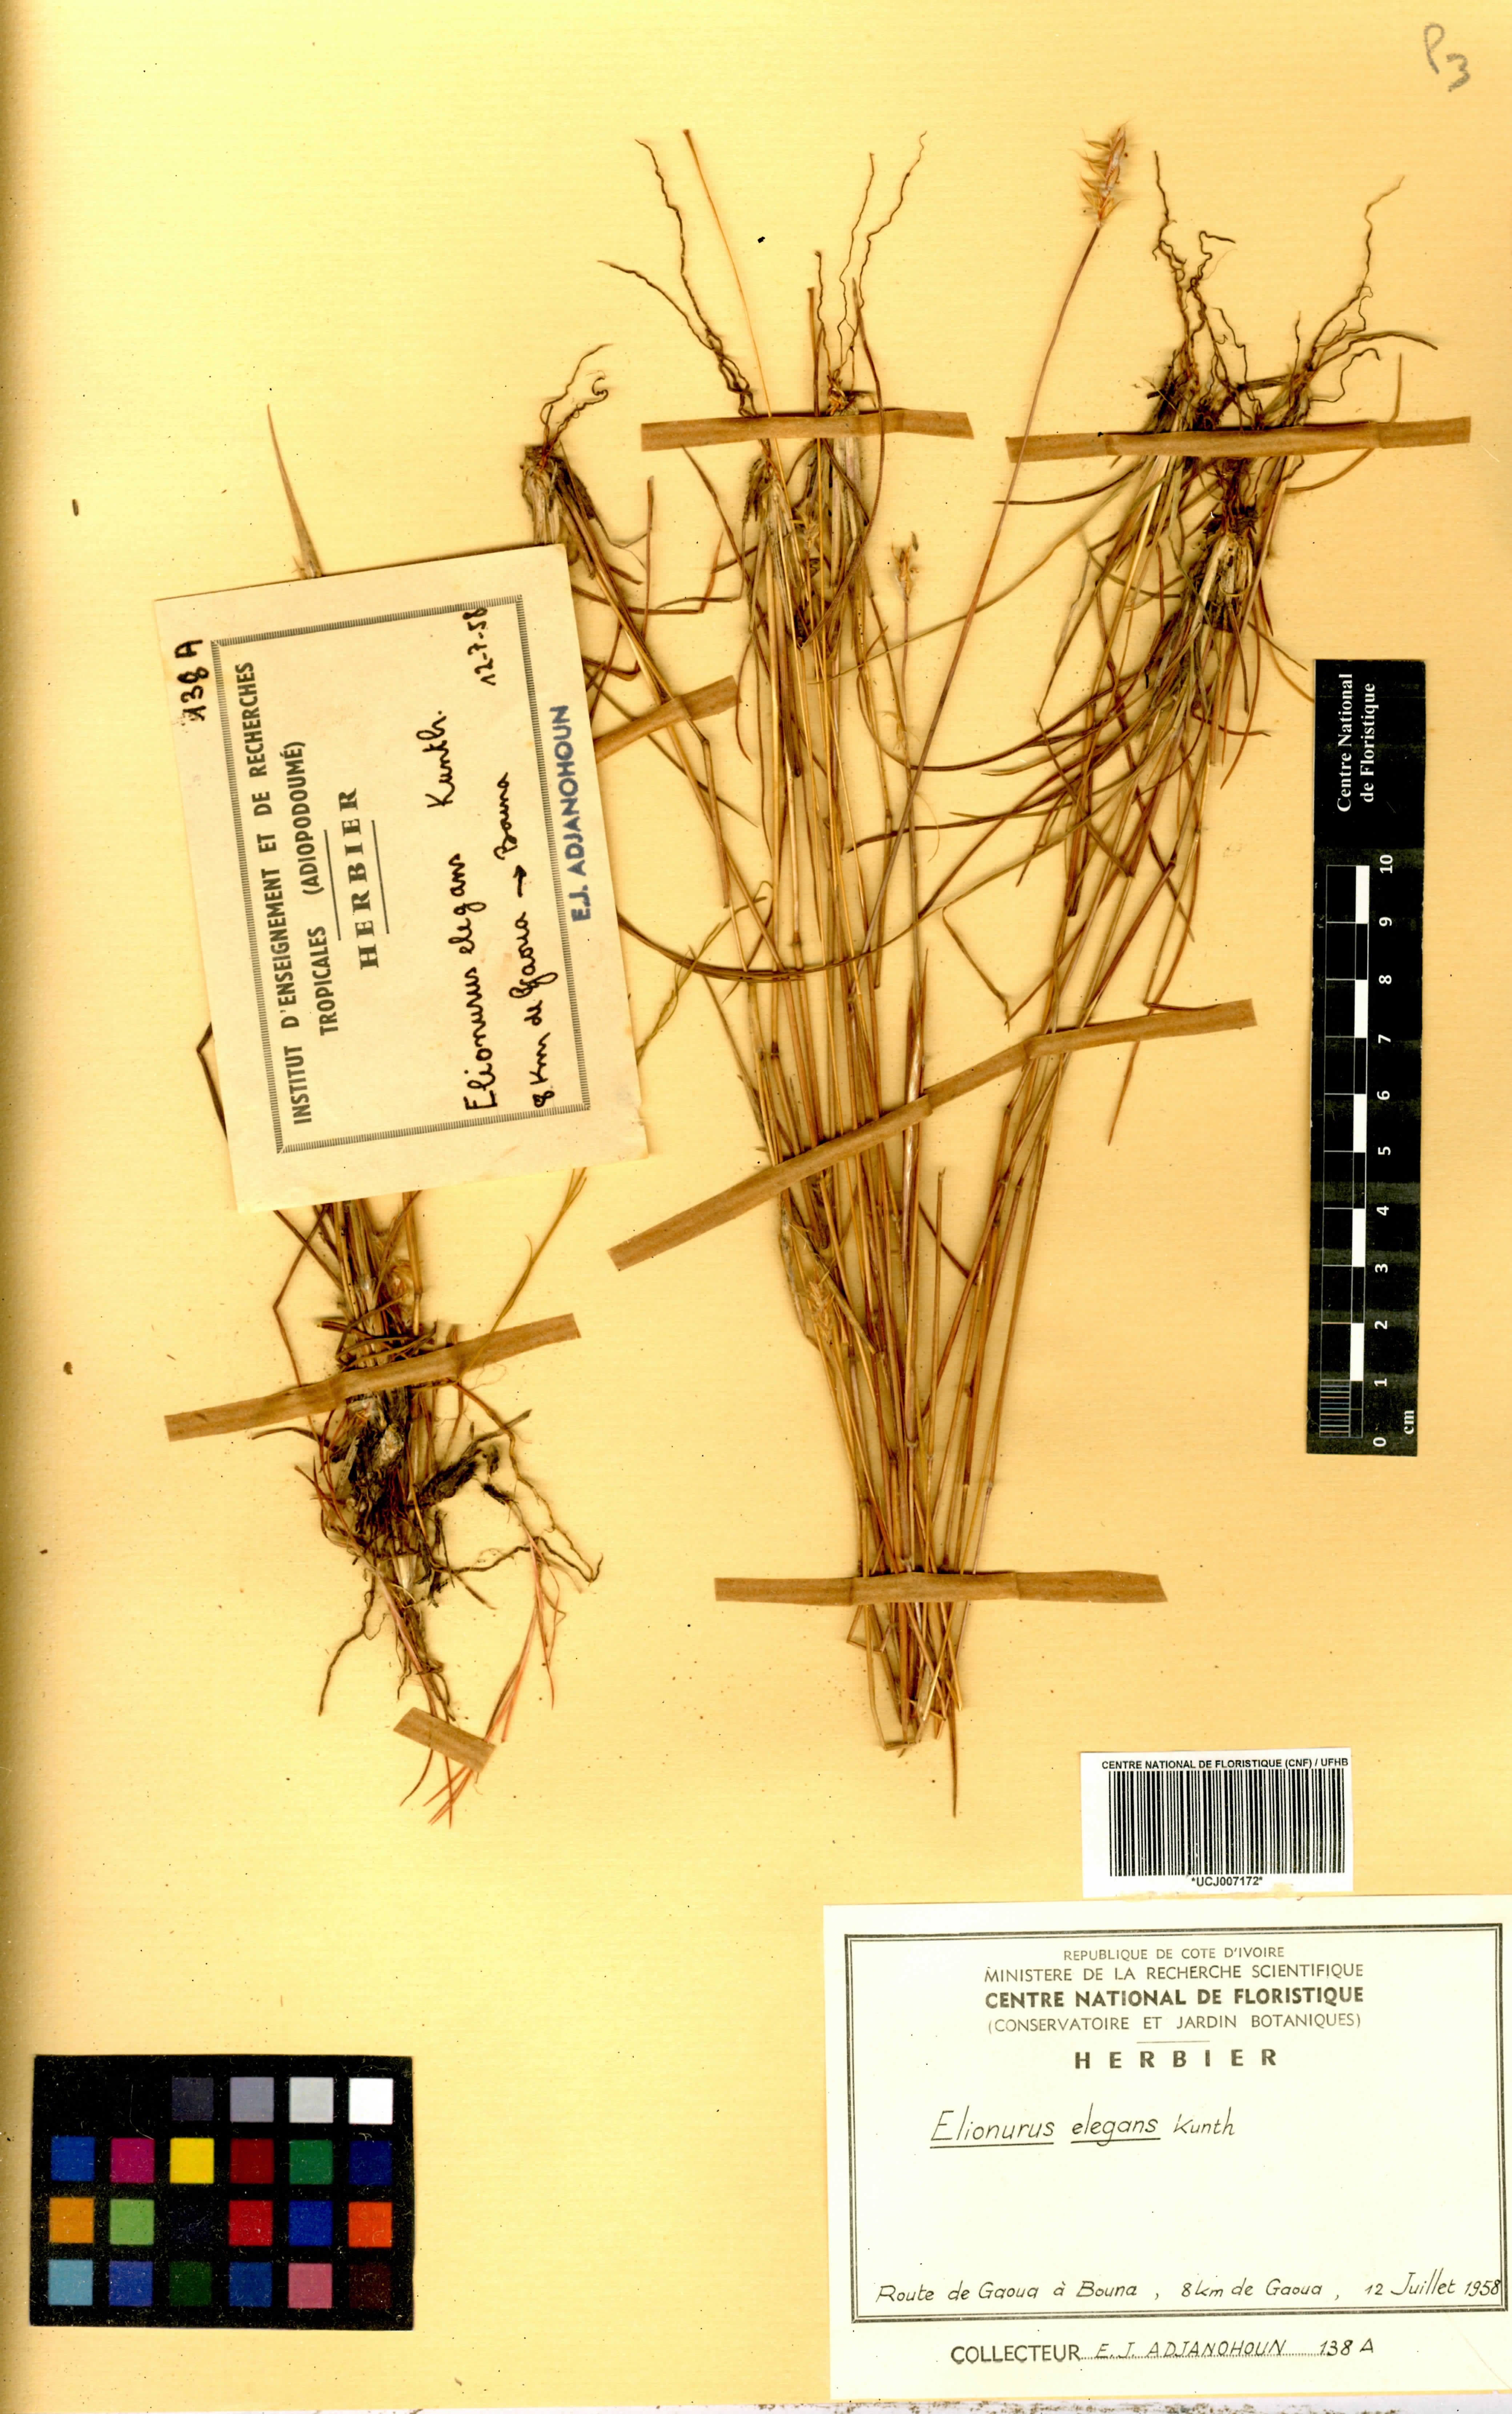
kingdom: Plantae
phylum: Tracheophyta
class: Liliopsida
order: Poales
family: Poaceae
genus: Elionurus
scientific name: Elionurus elegans
